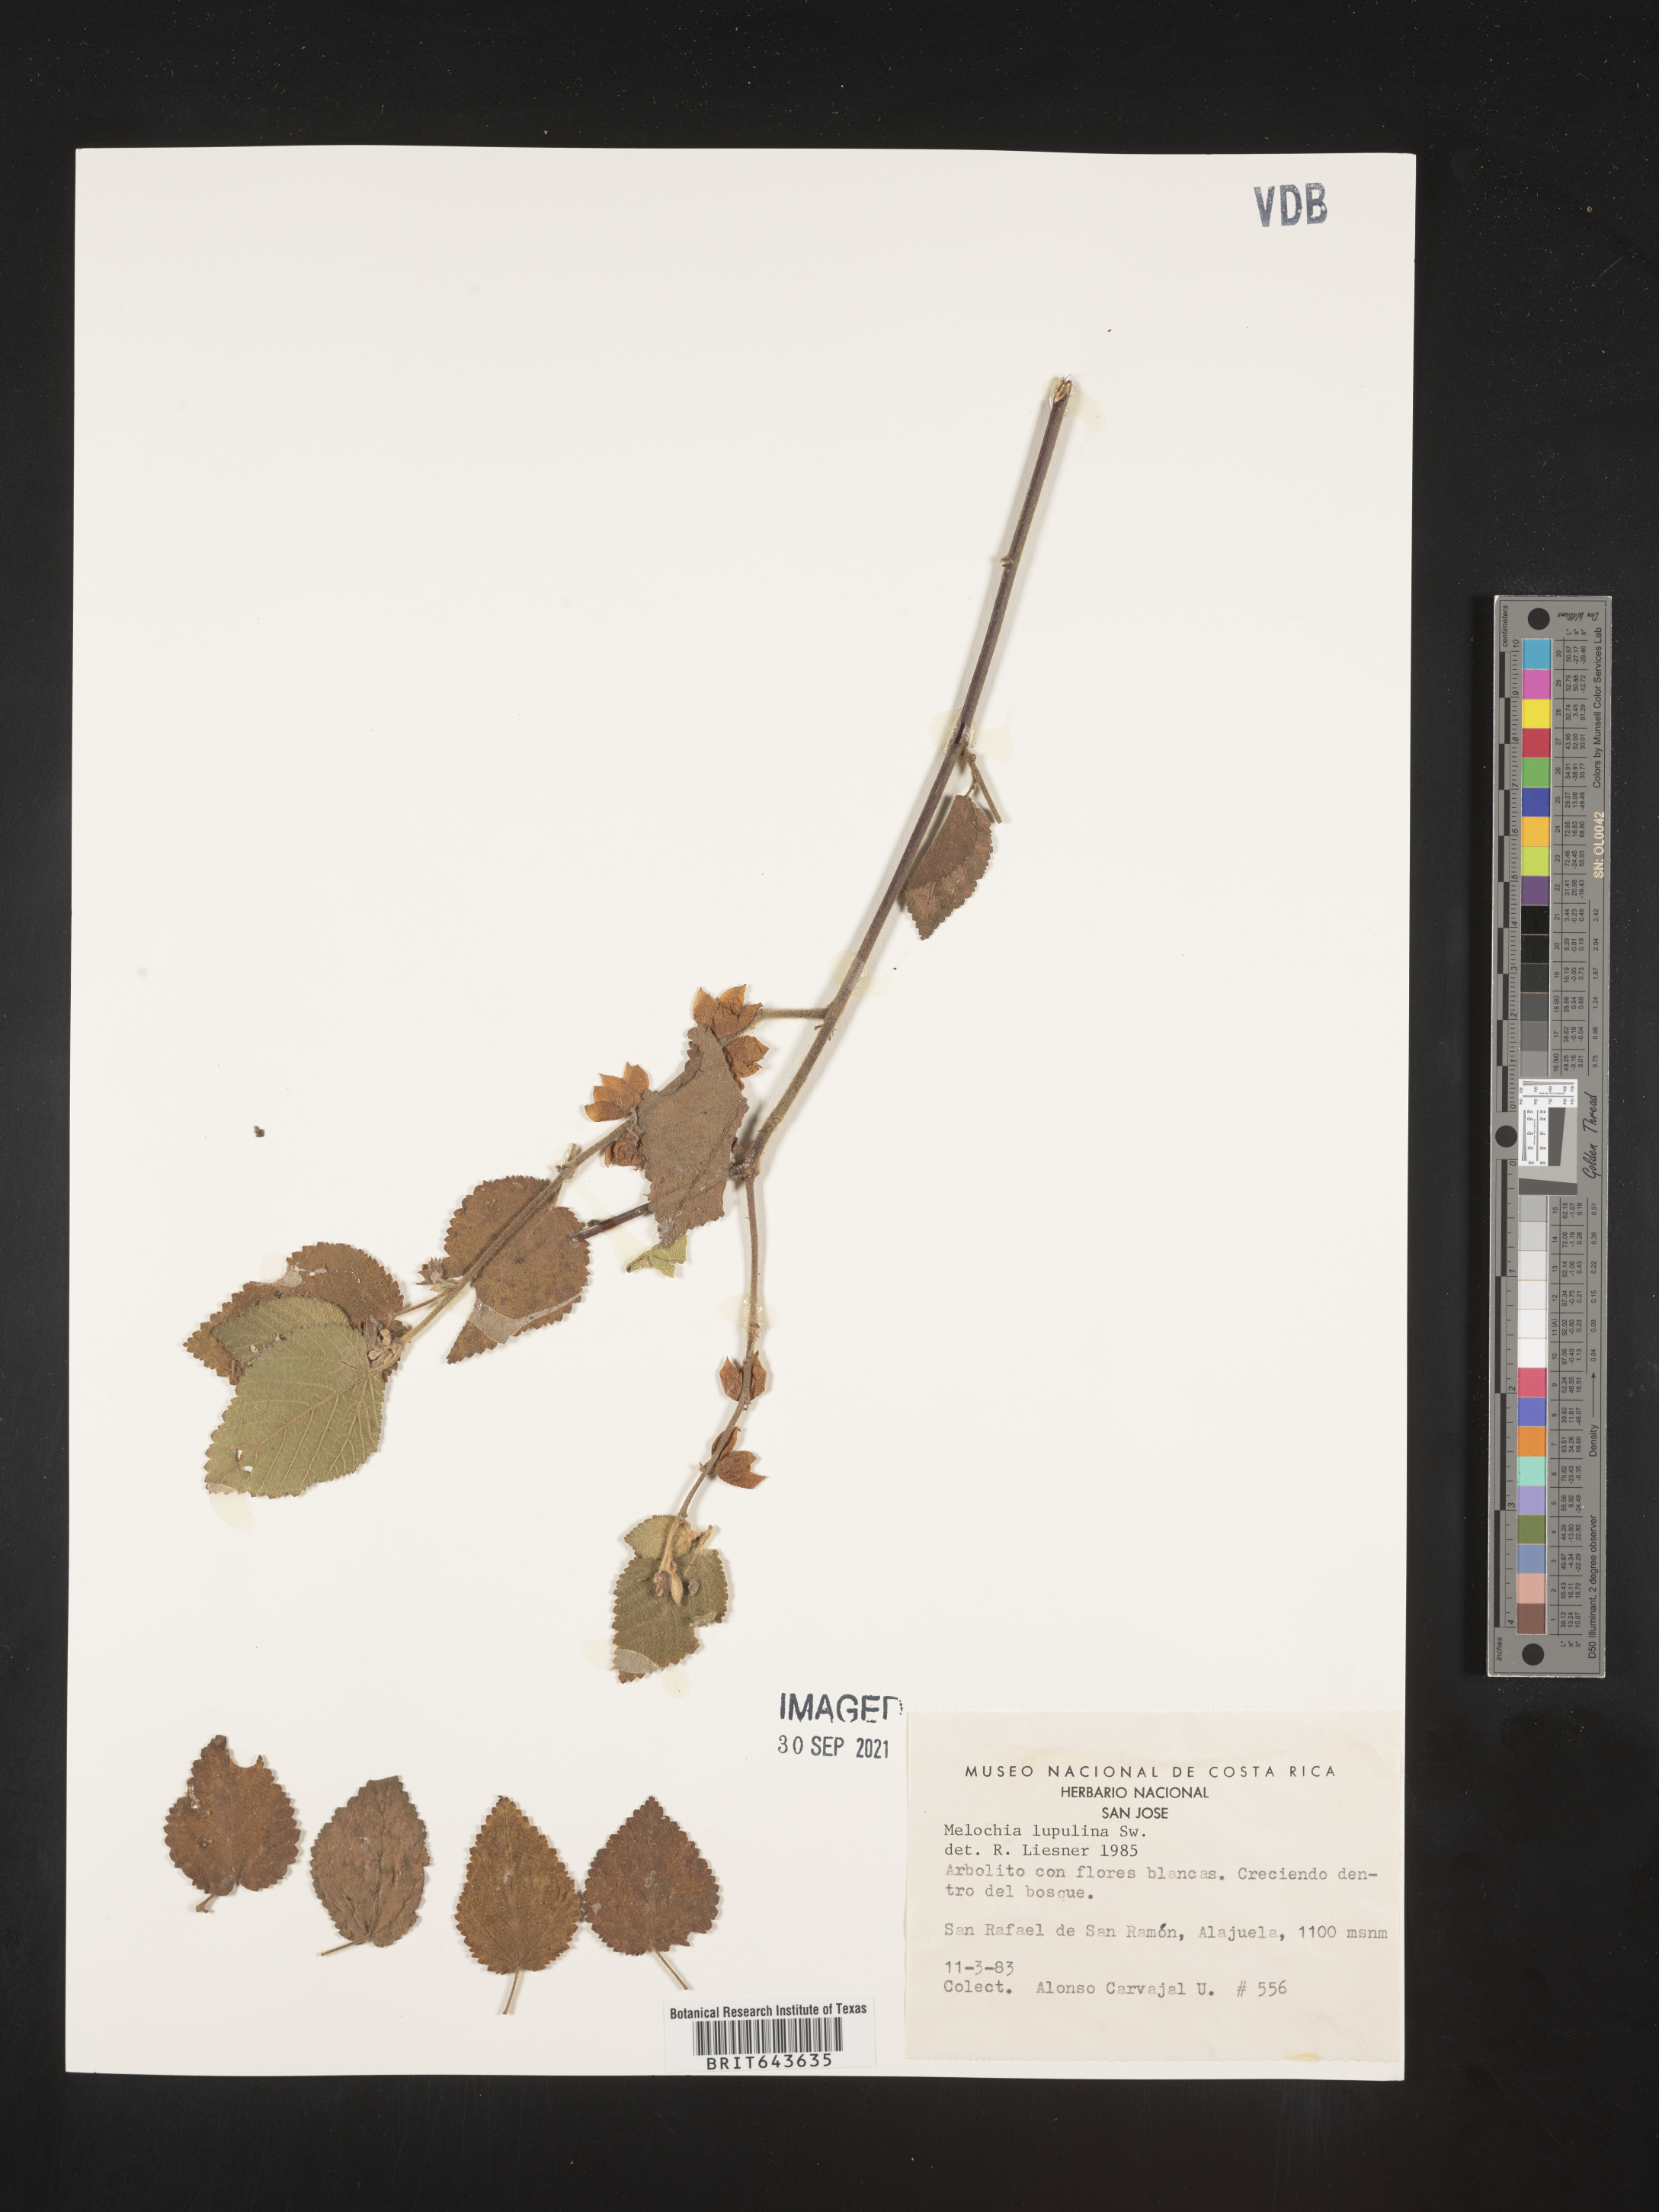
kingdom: Plantae
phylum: Tracheophyta
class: Magnoliopsida
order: Malvales
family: Malvaceae
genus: Melochia
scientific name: Melochia
